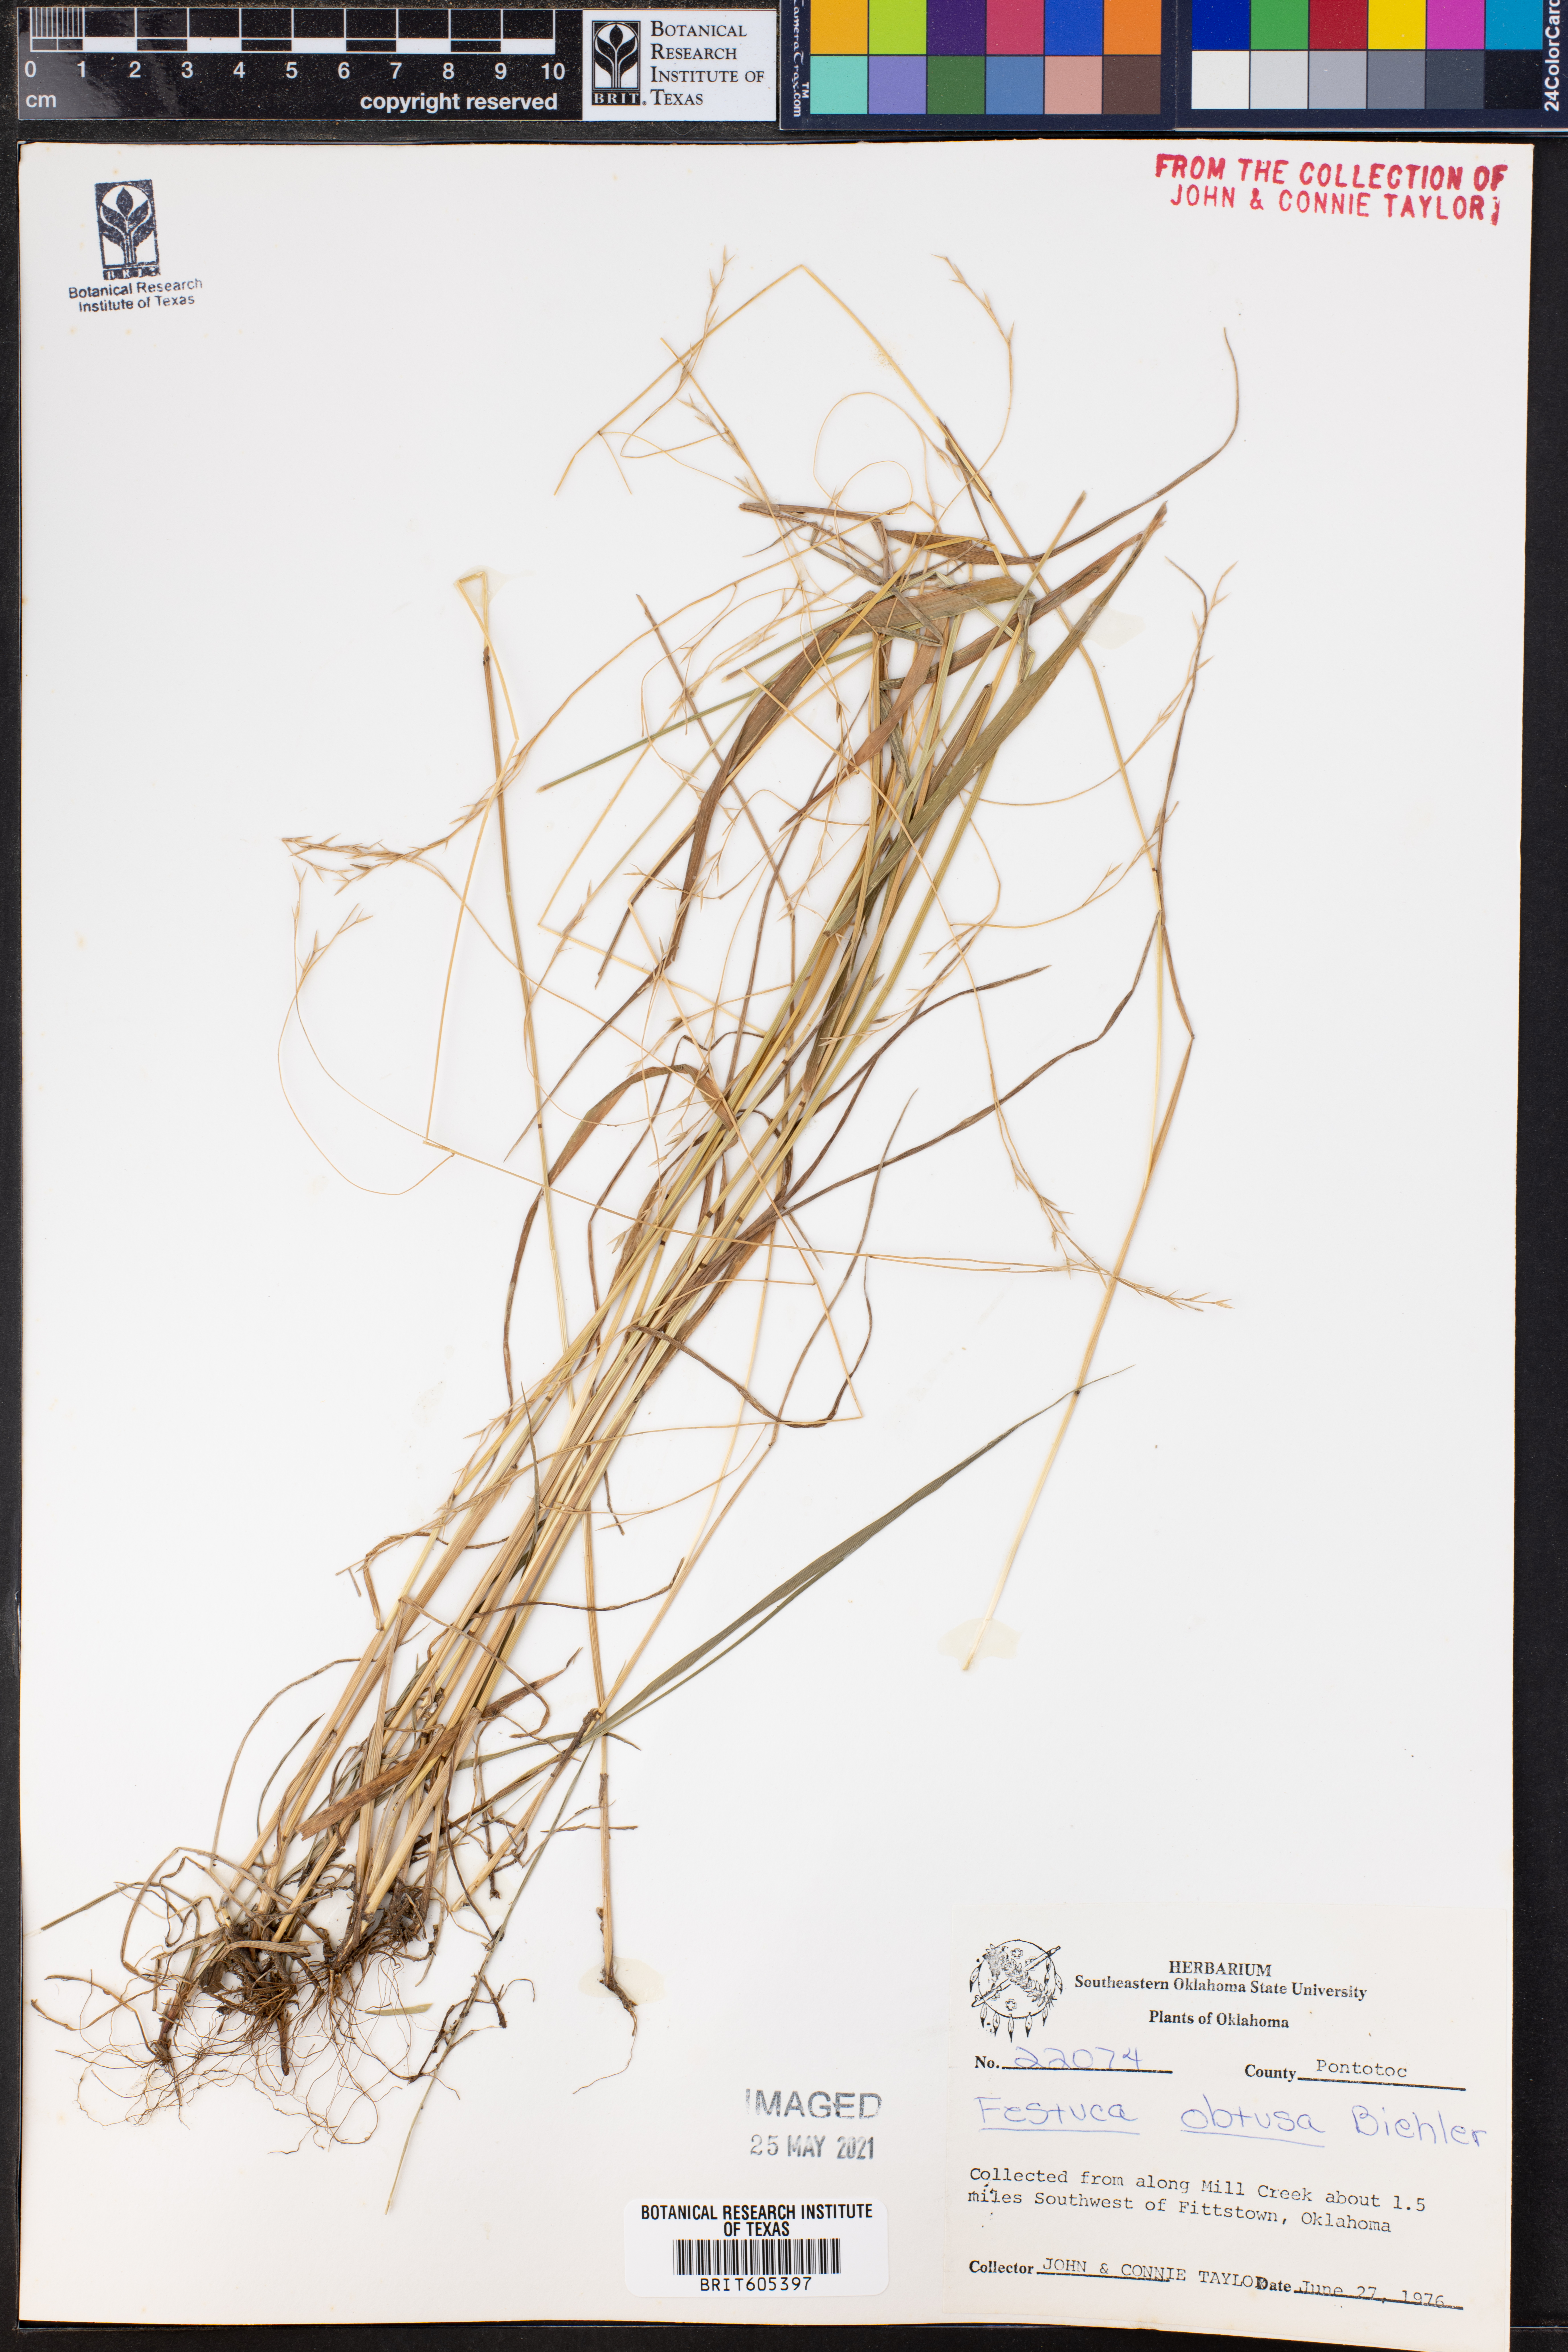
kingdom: Plantae
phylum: Tracheophyta
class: Liliopsida
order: Poales
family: Poaceae
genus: Festuca
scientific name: Festuca subverticillata
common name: Nodding fescue
